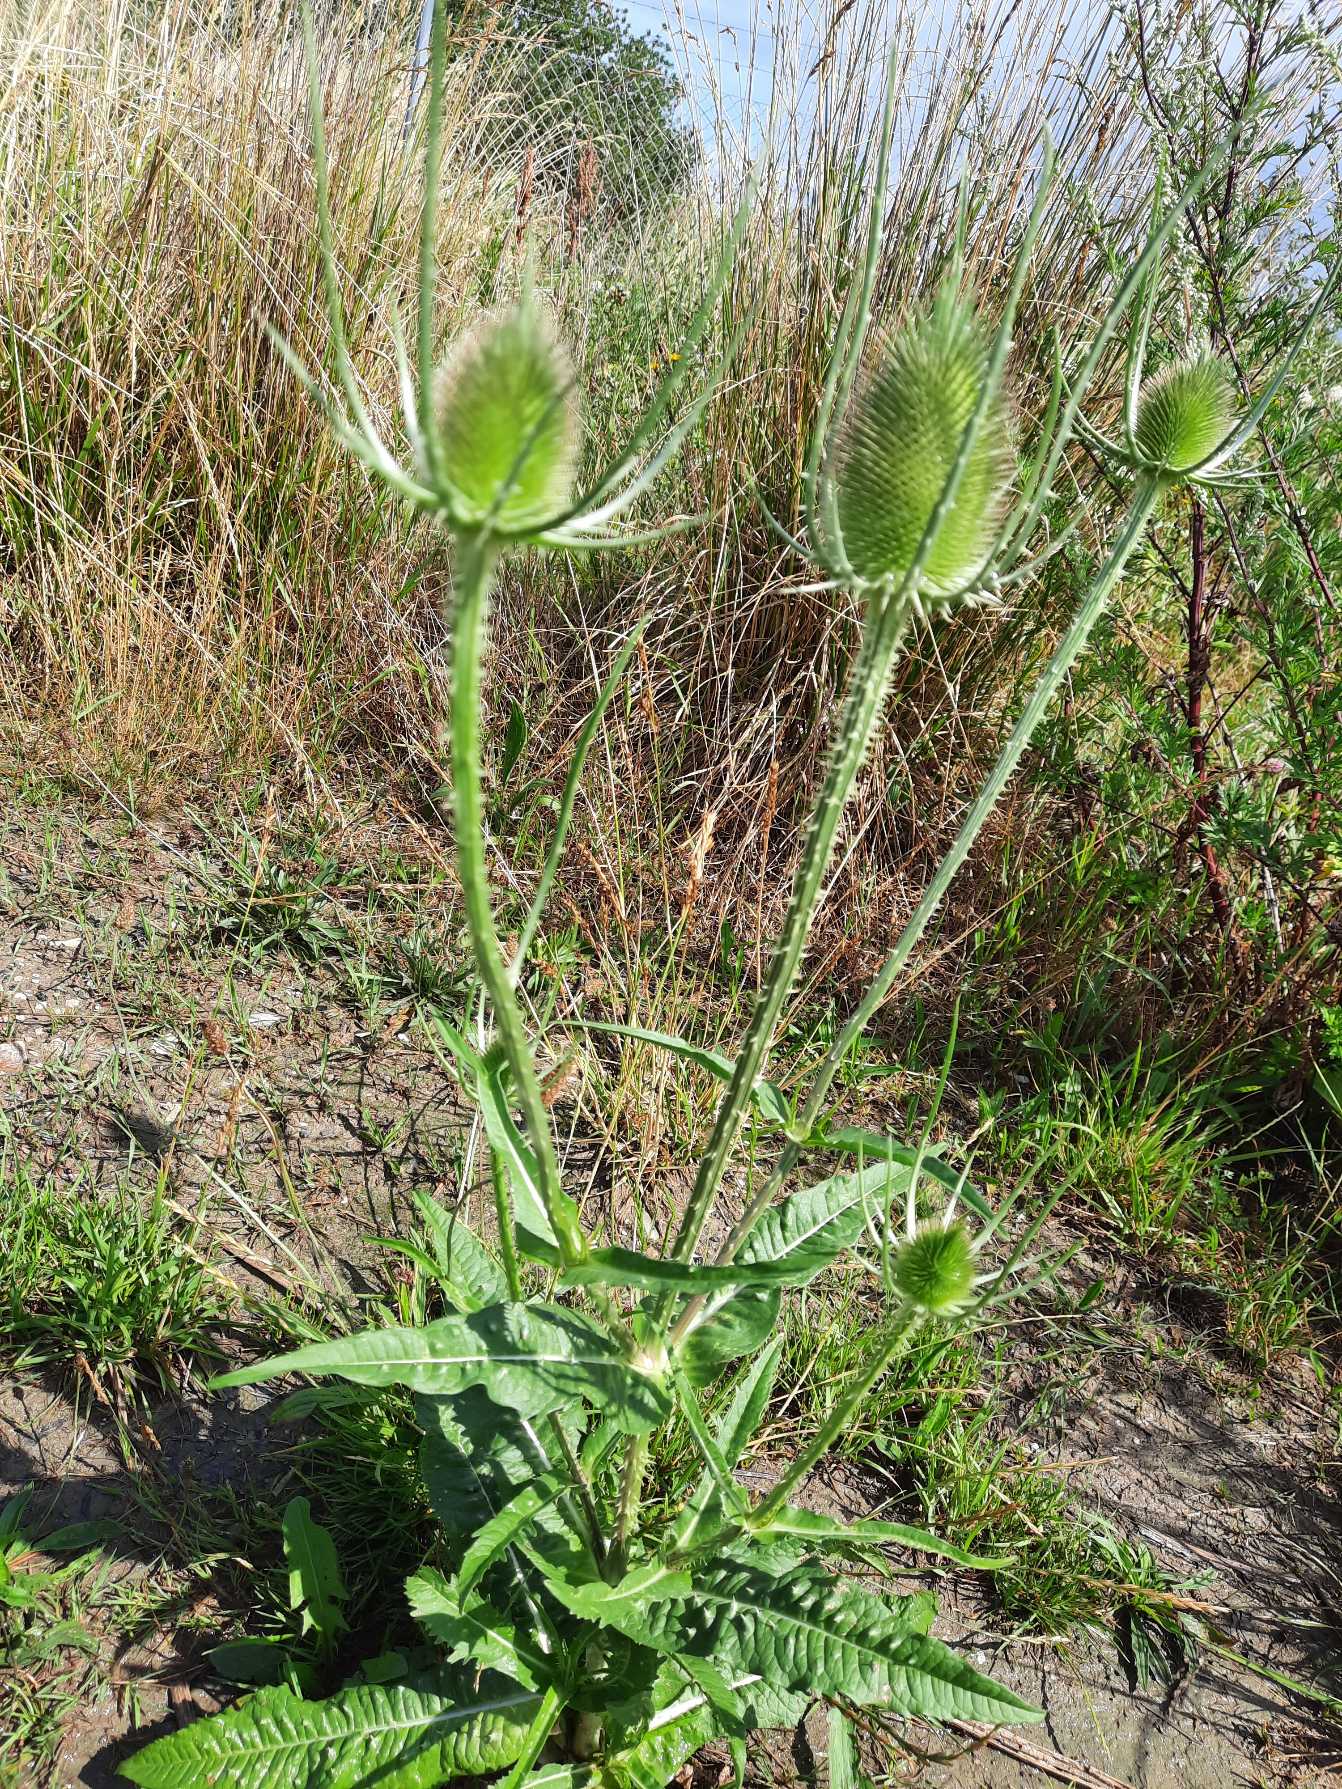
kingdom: Plantae
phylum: Tracheophyta
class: Magnoliopsida
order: Dipsacales
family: Caprifoliaceae
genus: Dipsacus
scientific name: Dipsacus fullonum
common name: Gærde-kartebolle
